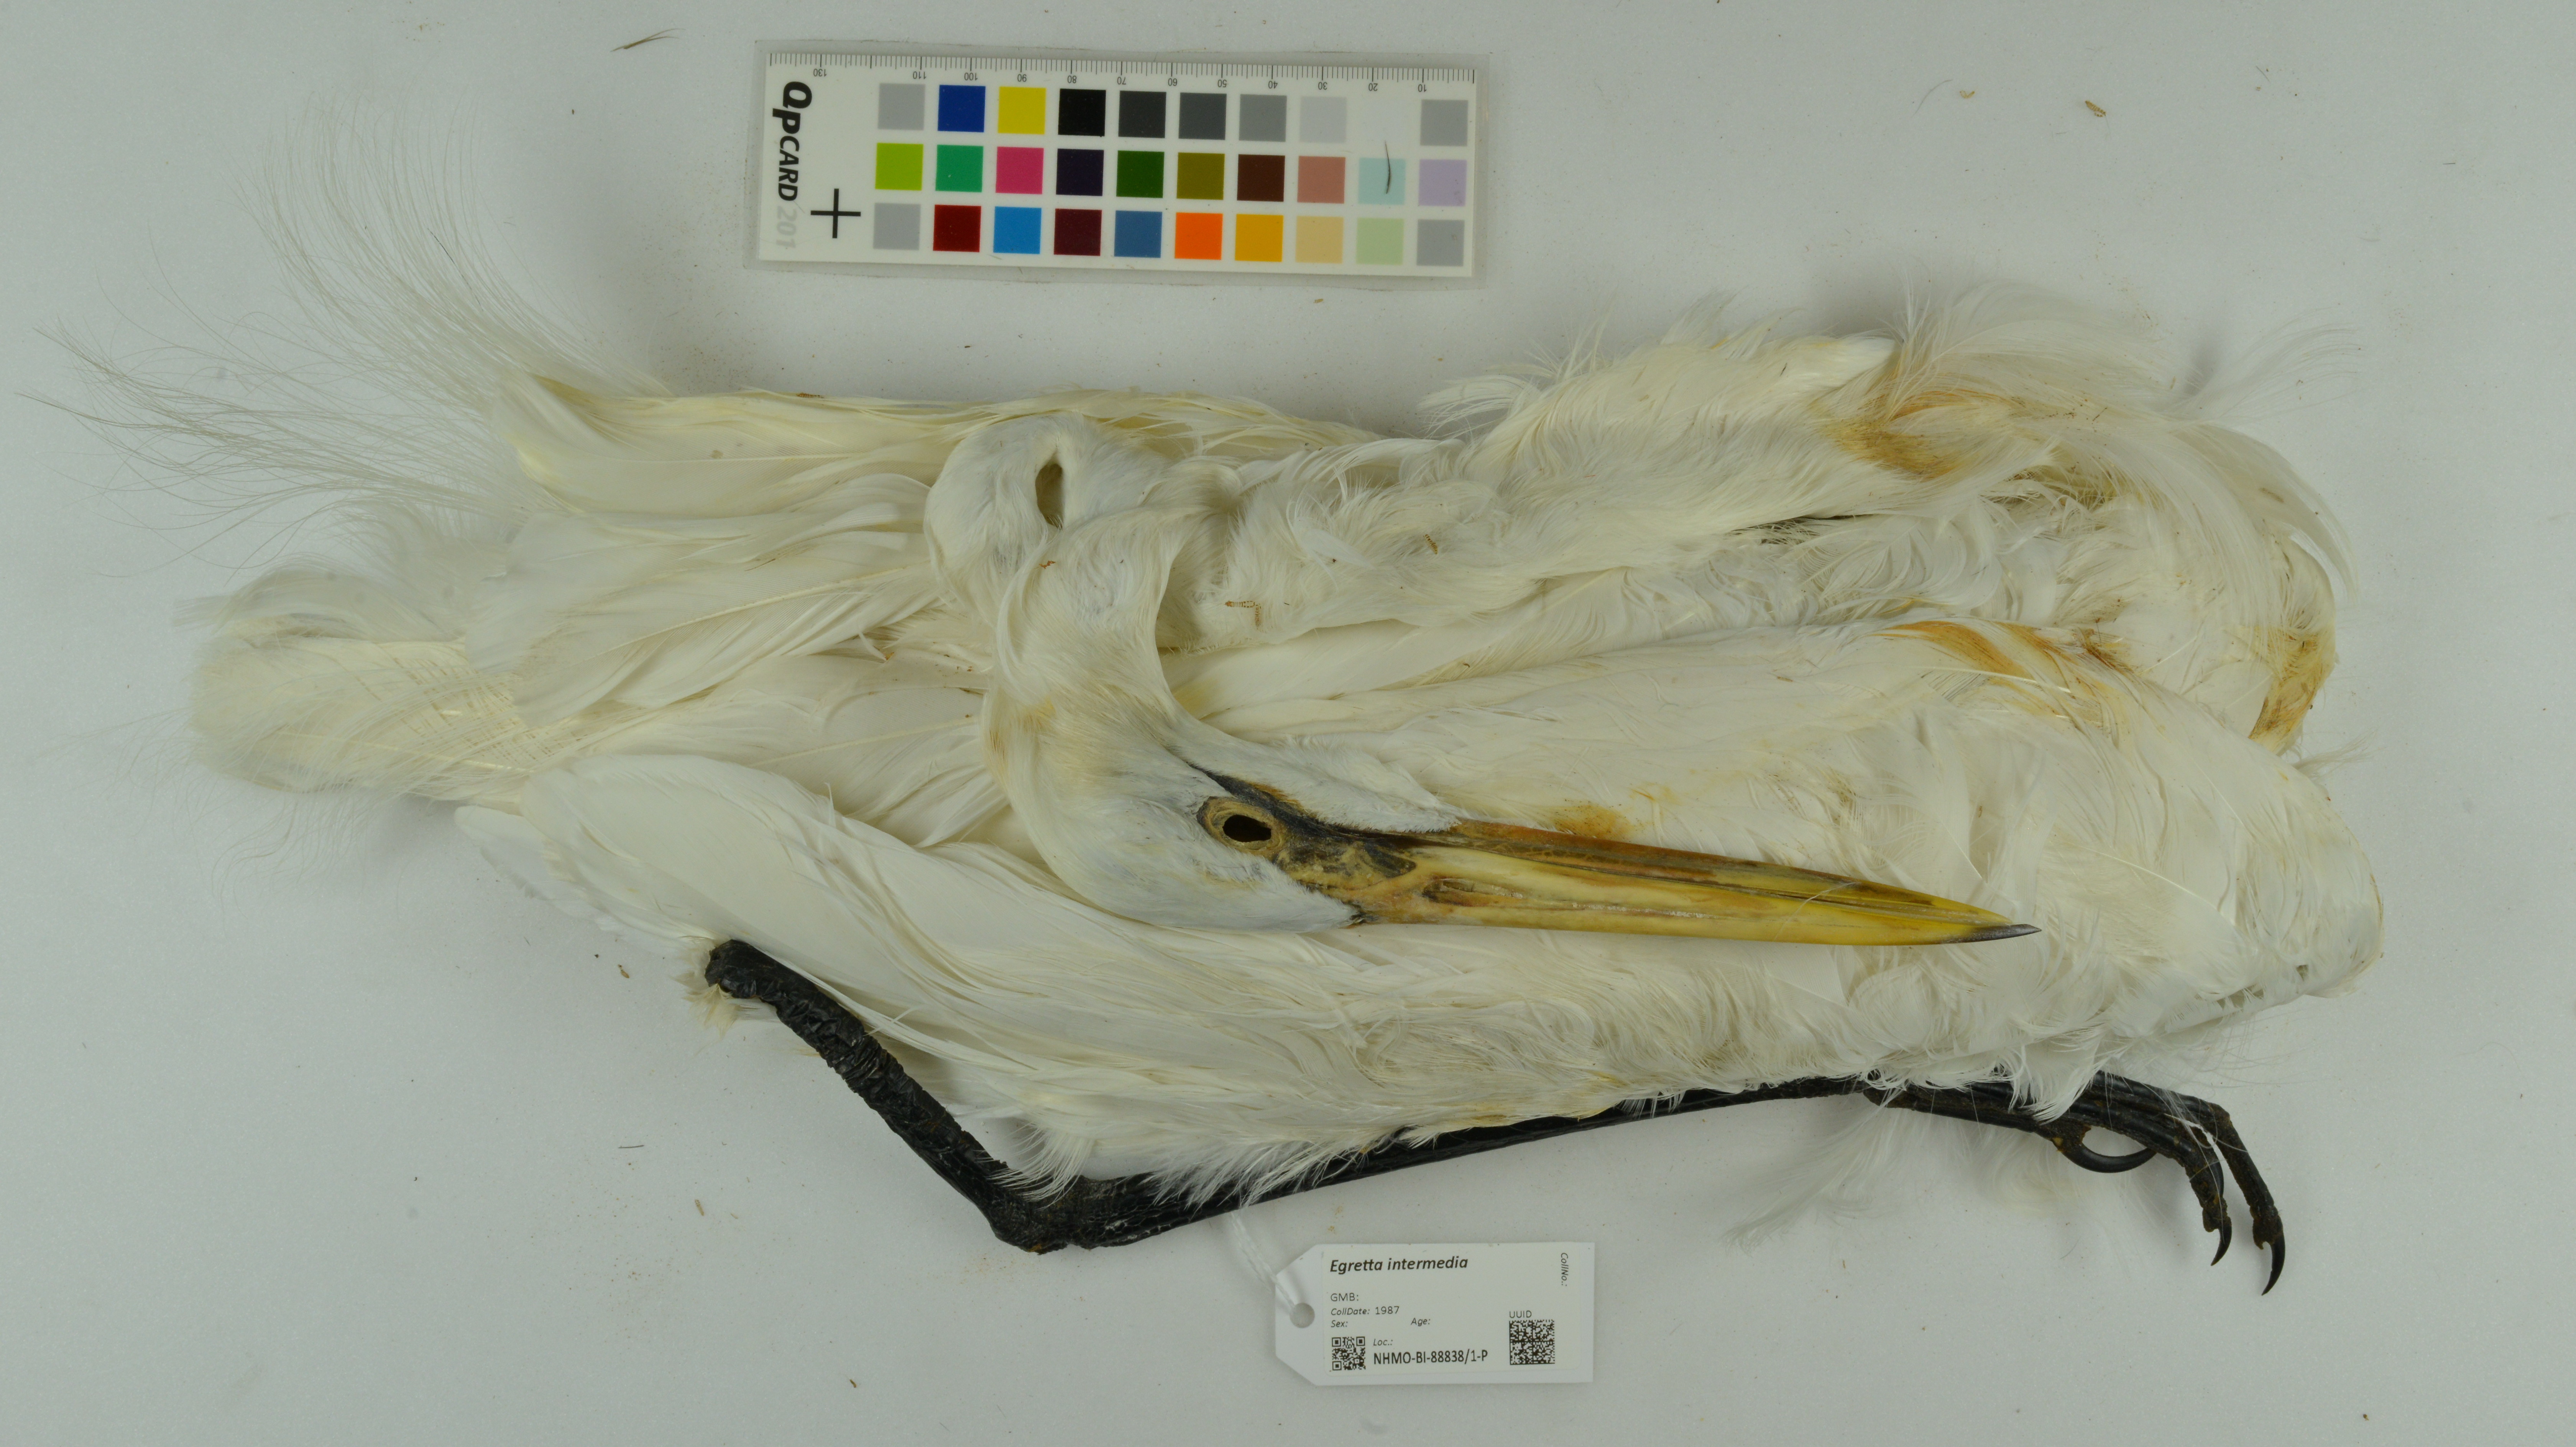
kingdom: Animalia
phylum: Chordata
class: Aves
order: Pelecaniformes
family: Ardeidae
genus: Egretta
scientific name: Egretta intermedia
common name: Intermediate egret
